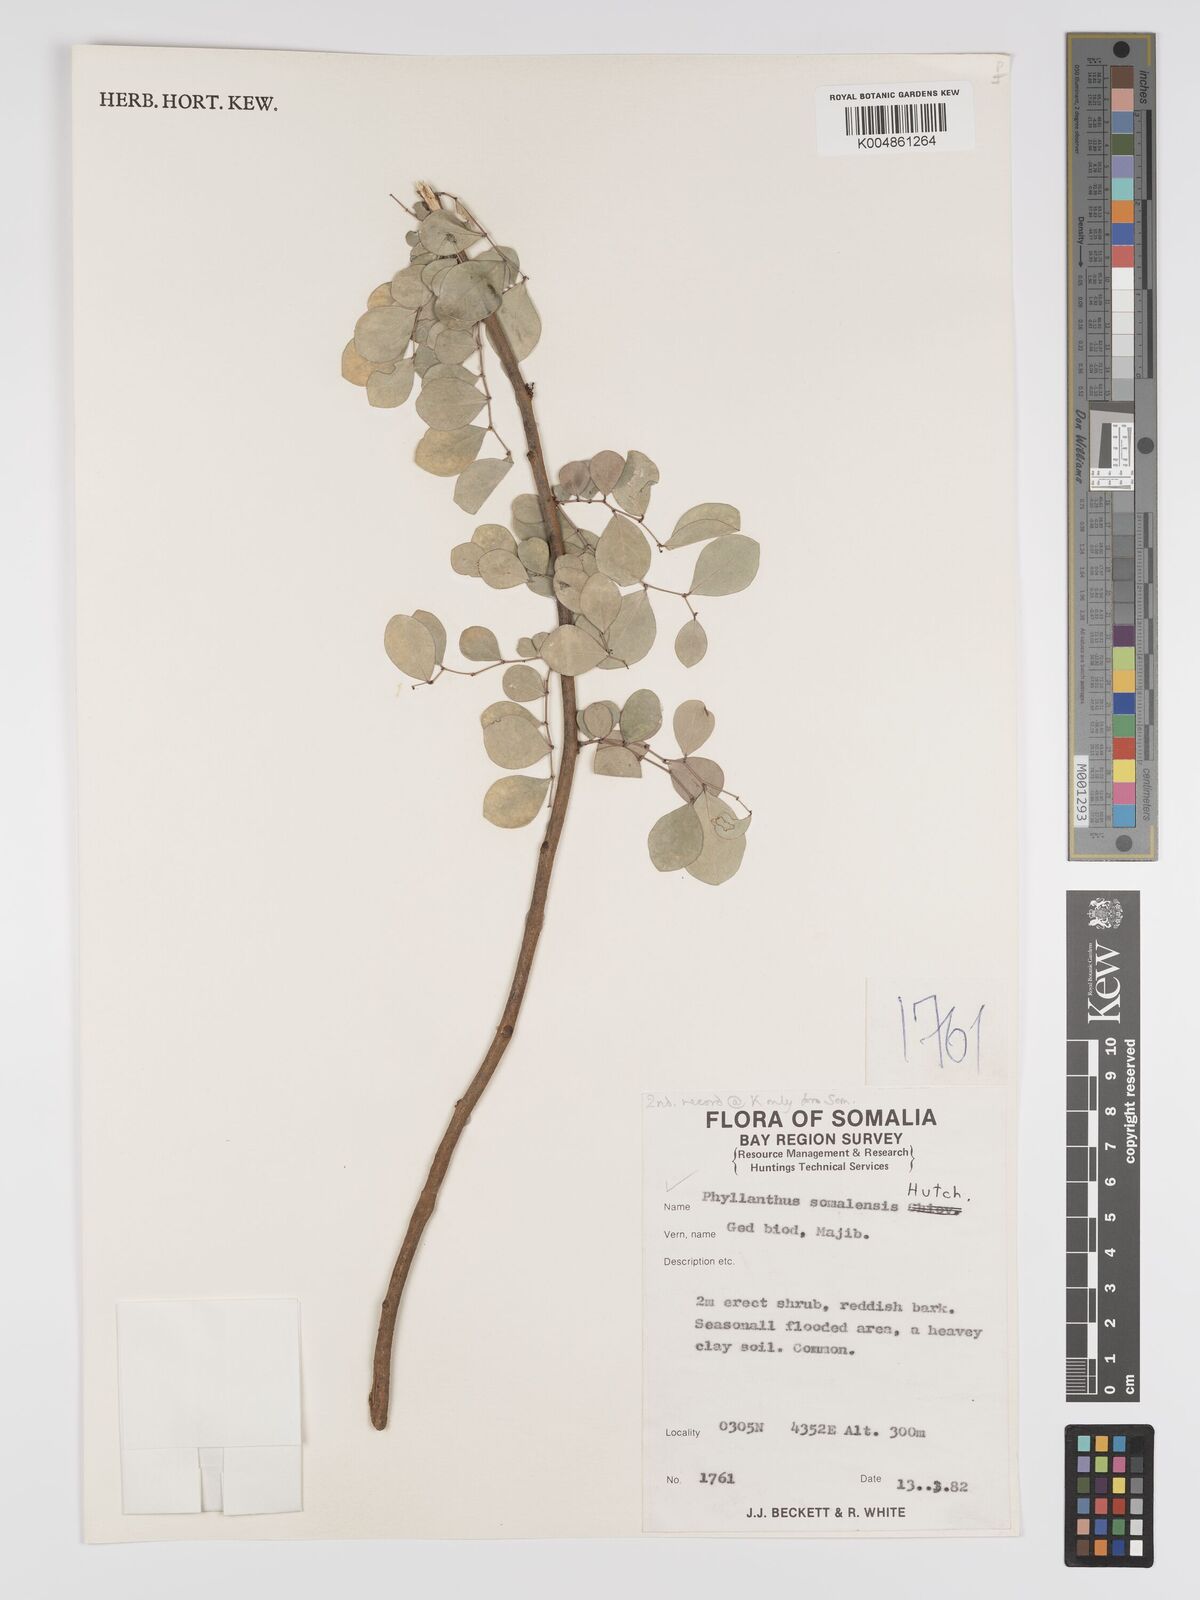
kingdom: Plantae
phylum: Tracheophyta
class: Magnoliopsida
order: Malpighiales
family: Phyllanthaceae
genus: Phyllanthus
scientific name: Phyllanthus somalensis
